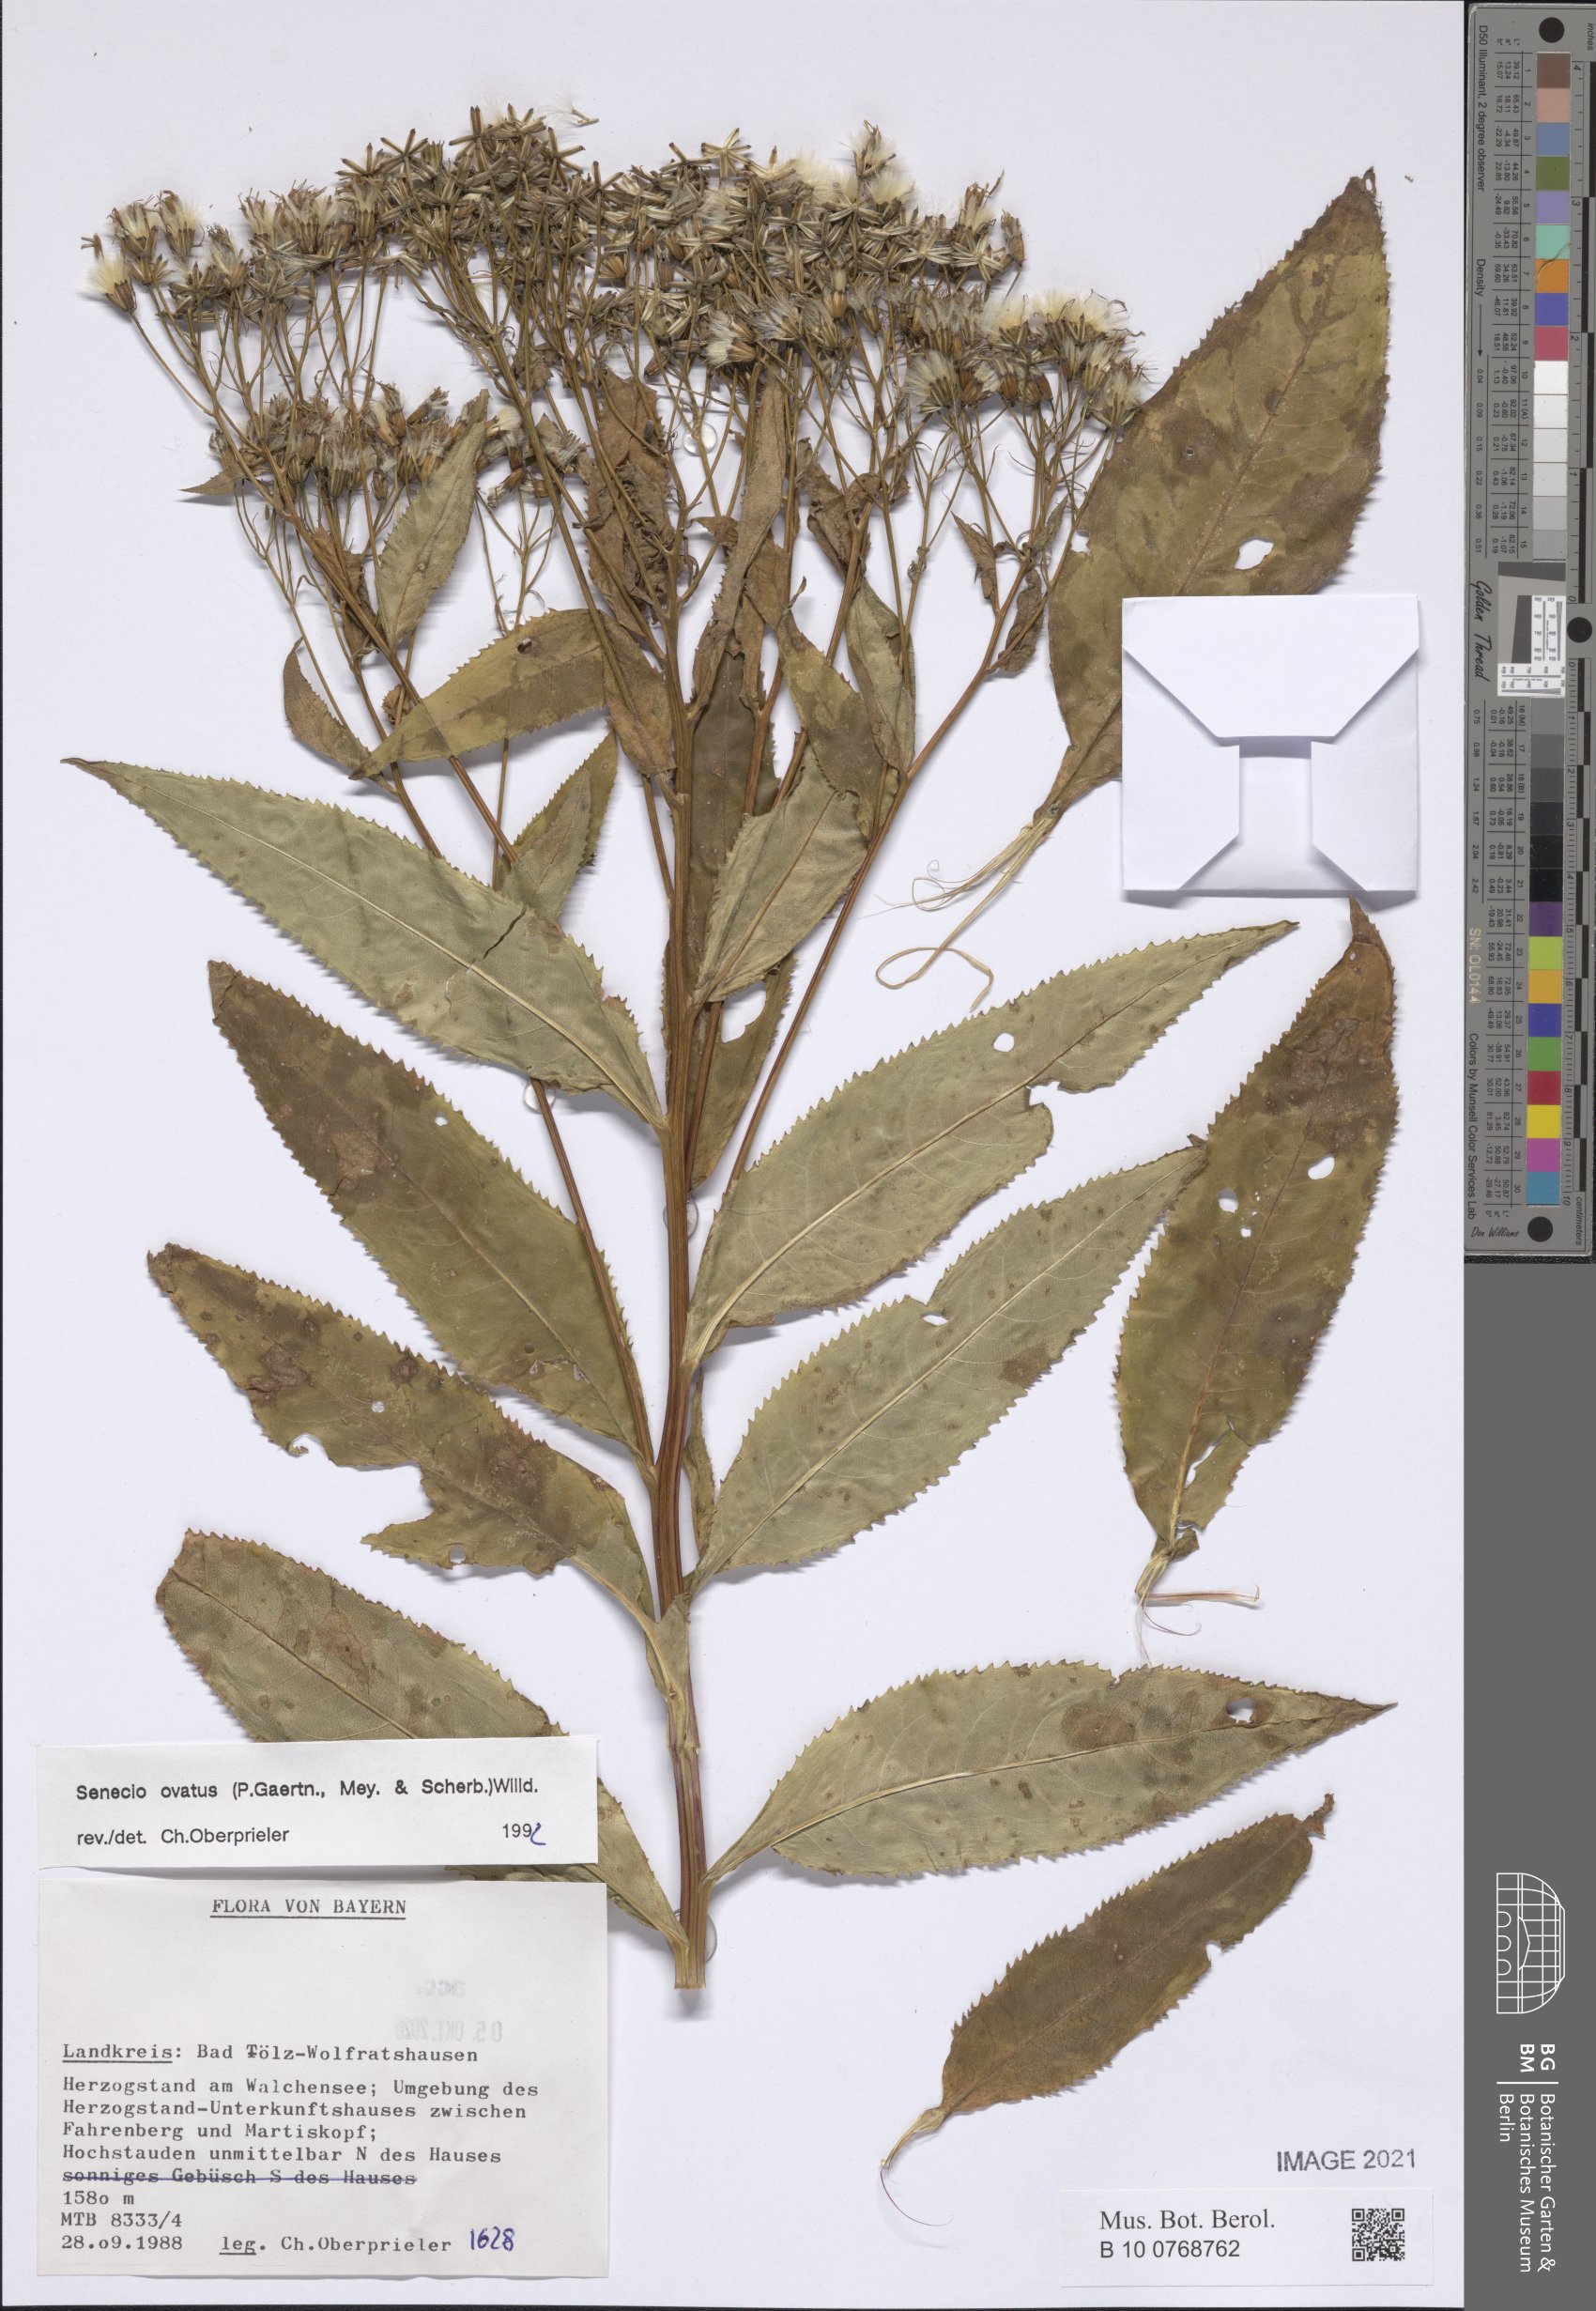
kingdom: Plantae
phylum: Tracheophyta
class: Magnoliopsida
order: Asterales
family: Asteraceae
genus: Senecio
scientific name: Senecio ovatus
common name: Wood ragwort
